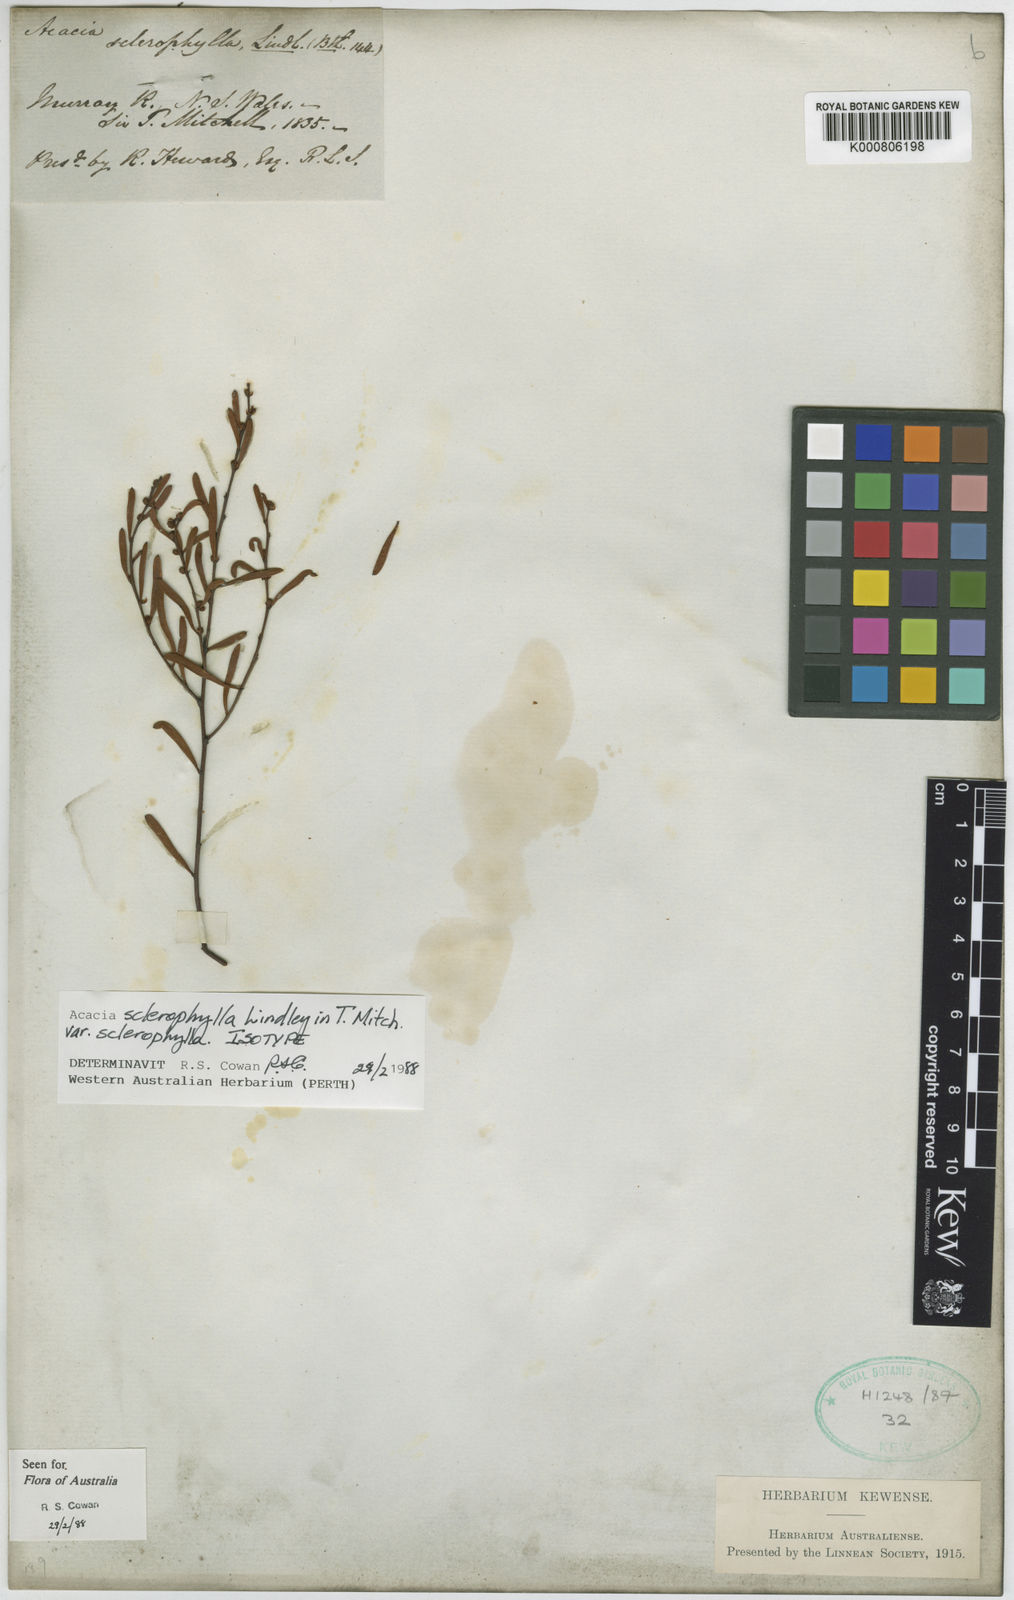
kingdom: Plantae
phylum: Tracheophyta
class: Magnoliopsida
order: Fabales
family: Fabaceae
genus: Acacia
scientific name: Acacia sclerophylla
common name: Hard-leaf wattle
